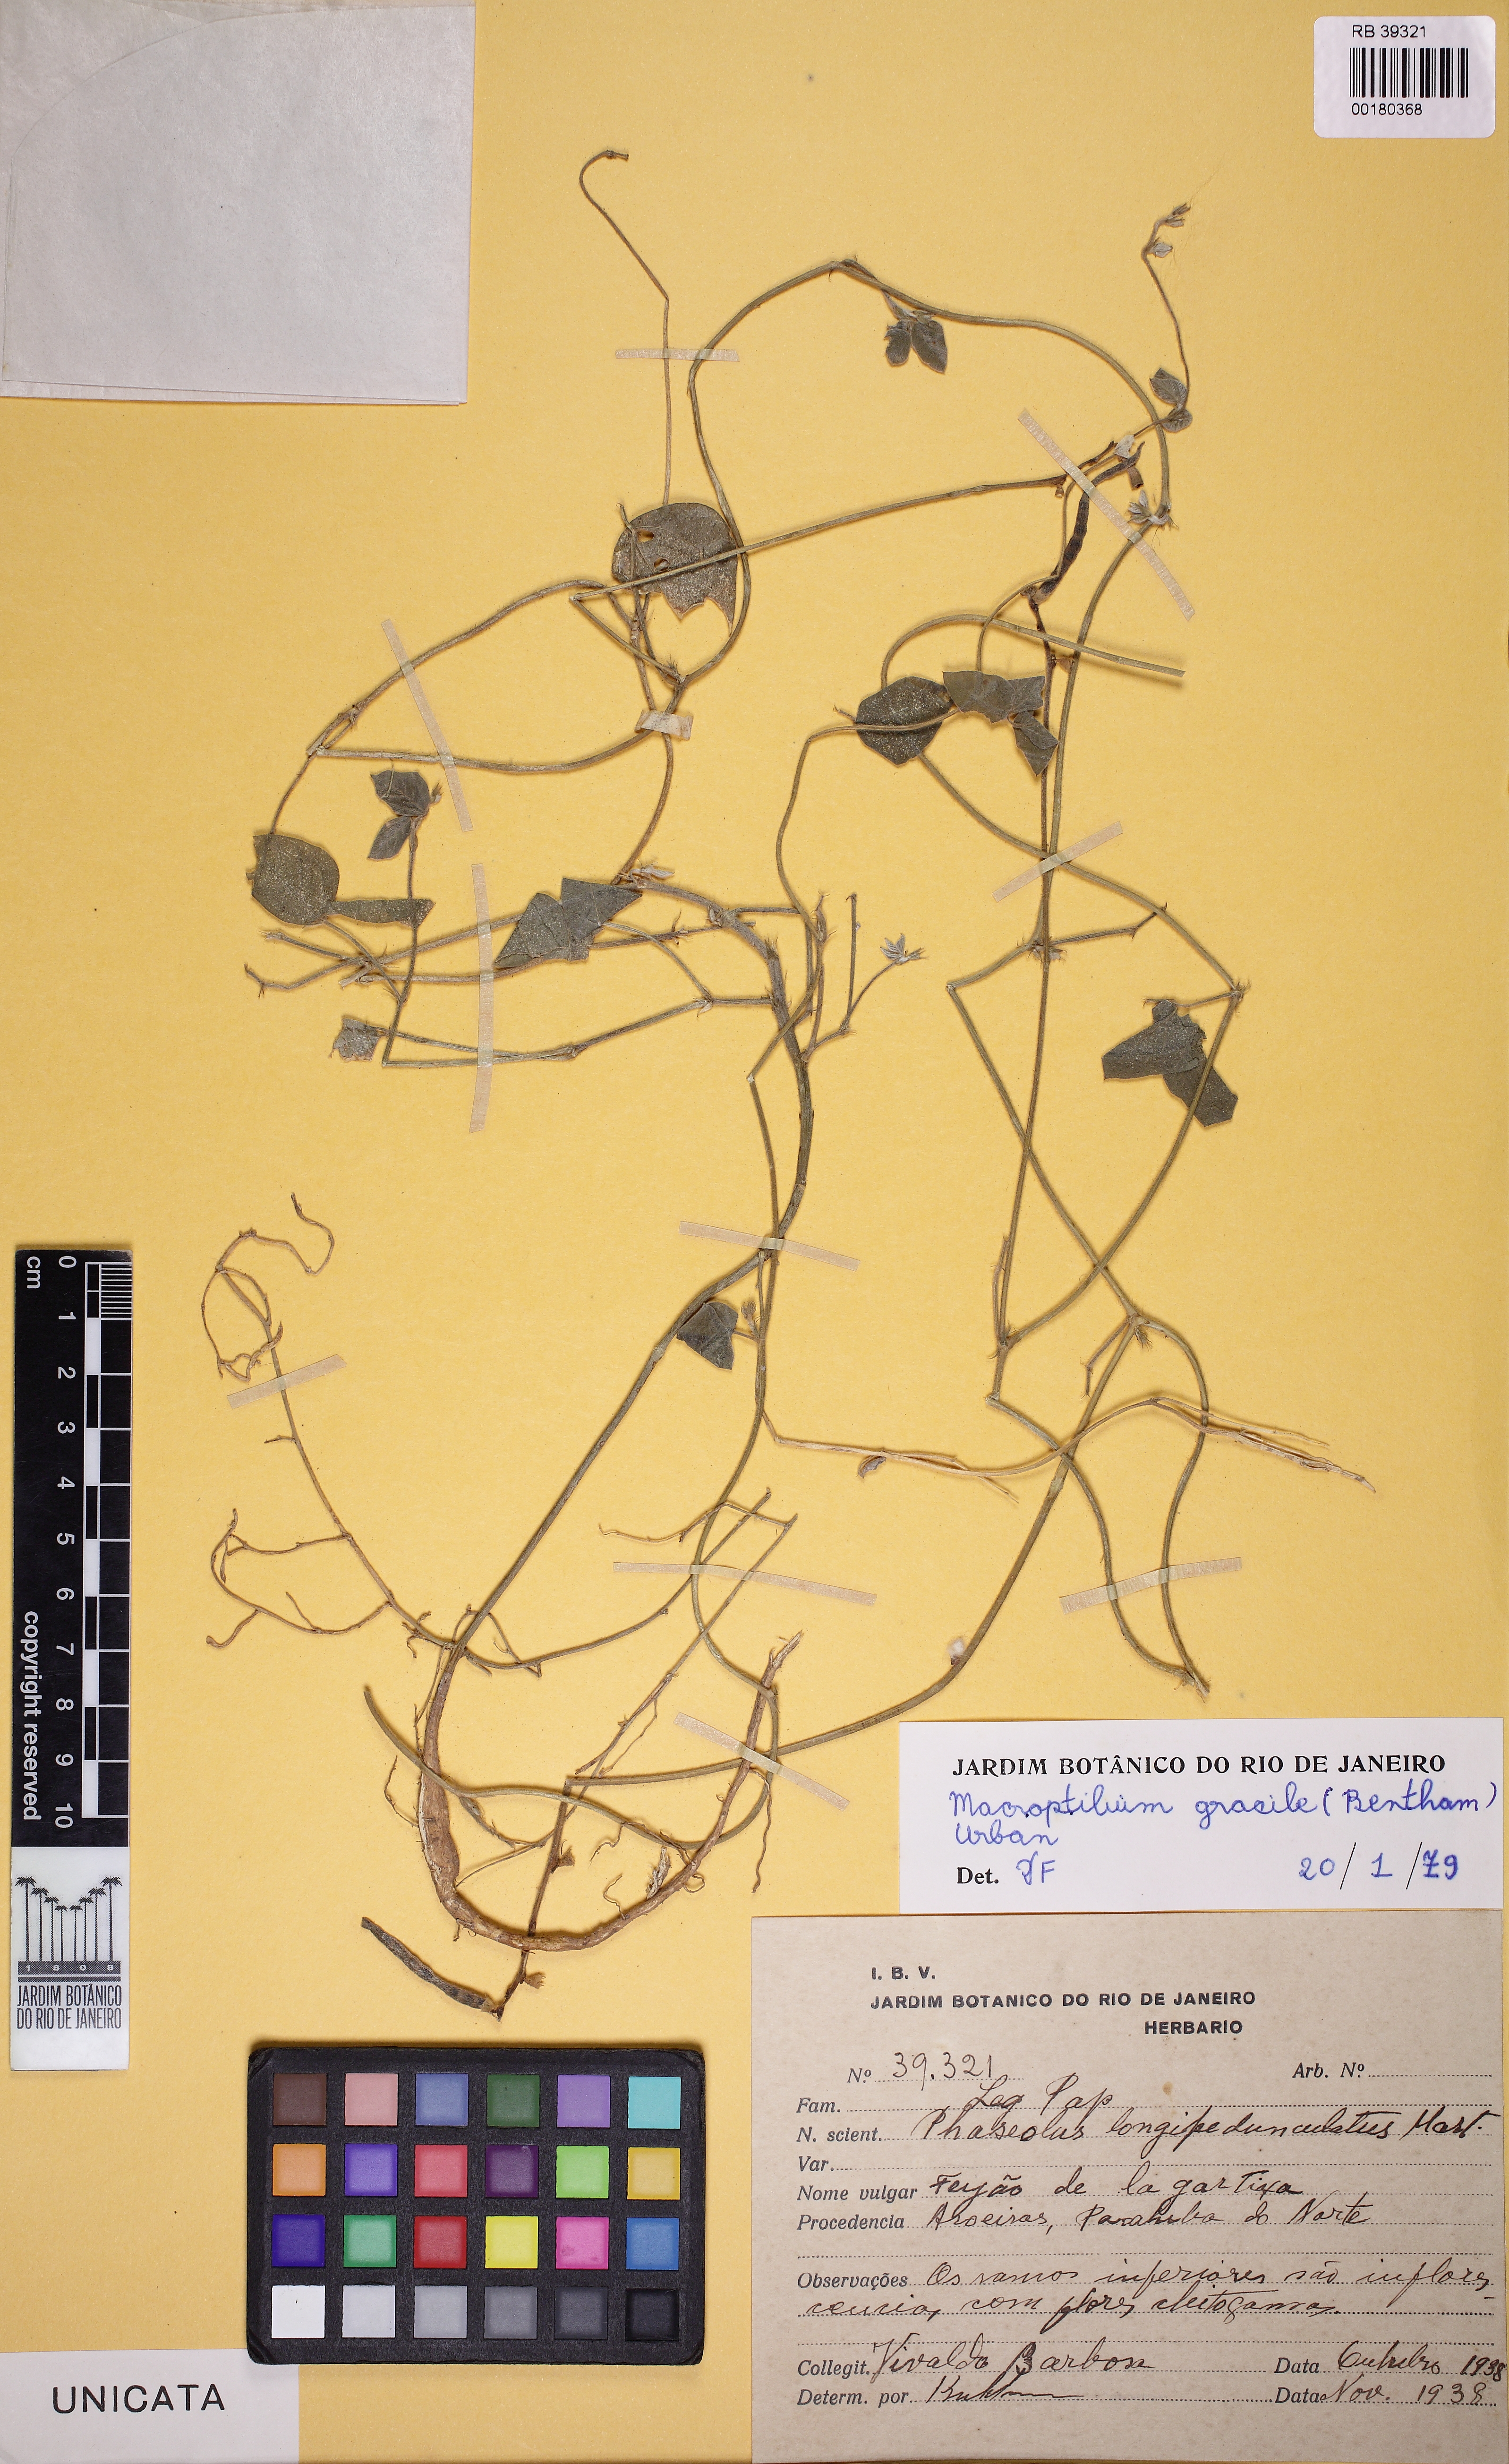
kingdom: Plantae
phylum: Tracheophyta
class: Magnoliopsida
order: Fabales
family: Fabaceae
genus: Macroptilium
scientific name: Macroptilium gracile
